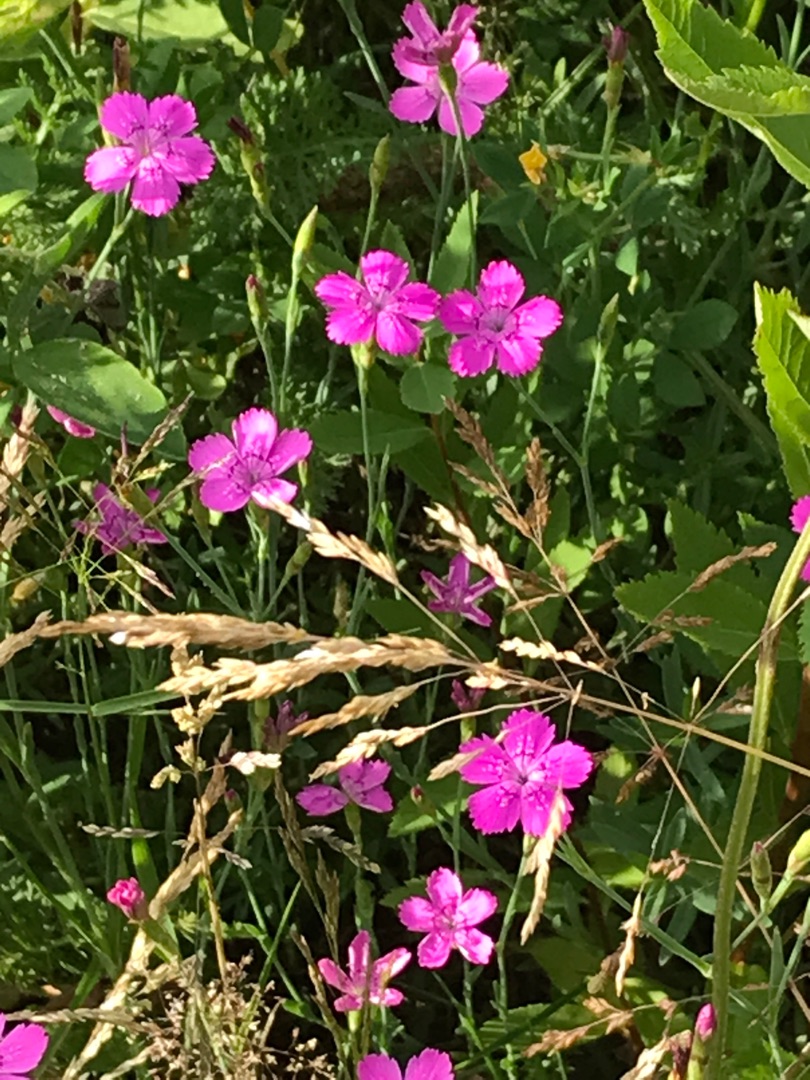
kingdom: Plantae
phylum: Tracheophyta
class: Magnoliopsida
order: Caryophyllales
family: Caryophyllaceae
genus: Dianthus
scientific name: Dianthus deltoides
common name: Bakke-nellike
